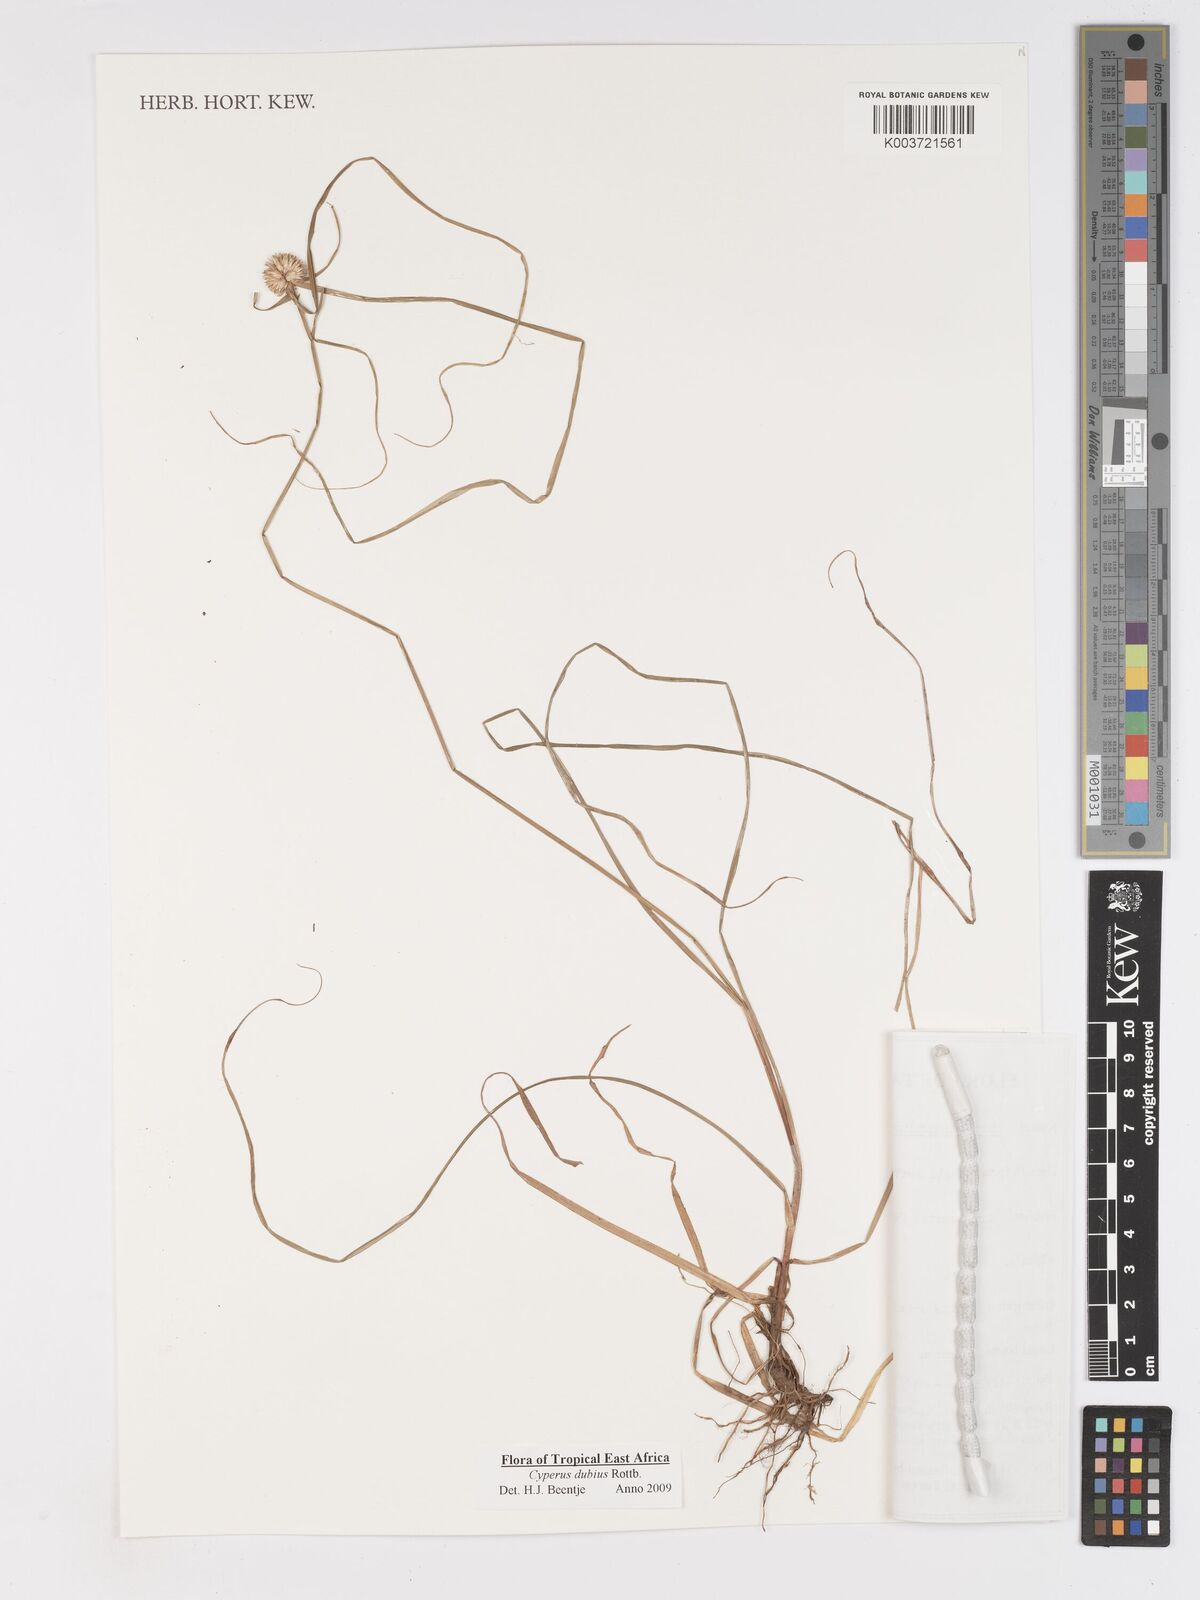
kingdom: Plantae
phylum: Tracheophyta
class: Liliopsida
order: Poales
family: Cyperaceae
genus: Cyperus
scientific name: Cyperus dubius
